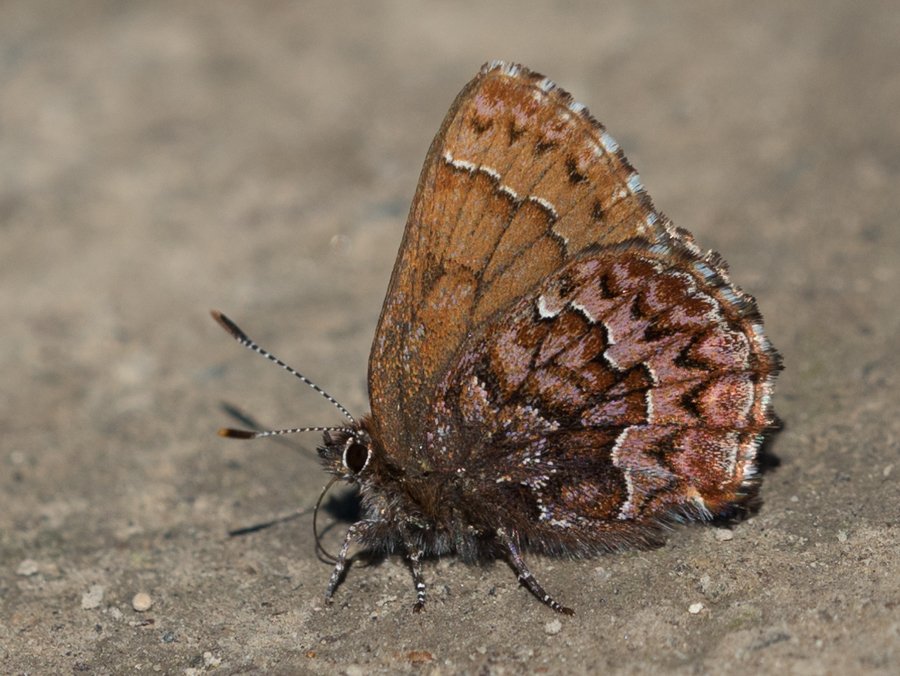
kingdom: Animalia
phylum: Arthropoda
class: Insecta
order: Lepidoptera
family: Lycaenidae
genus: Incisalia
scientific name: Incisalia eryphon
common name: Western Pine Elfin
